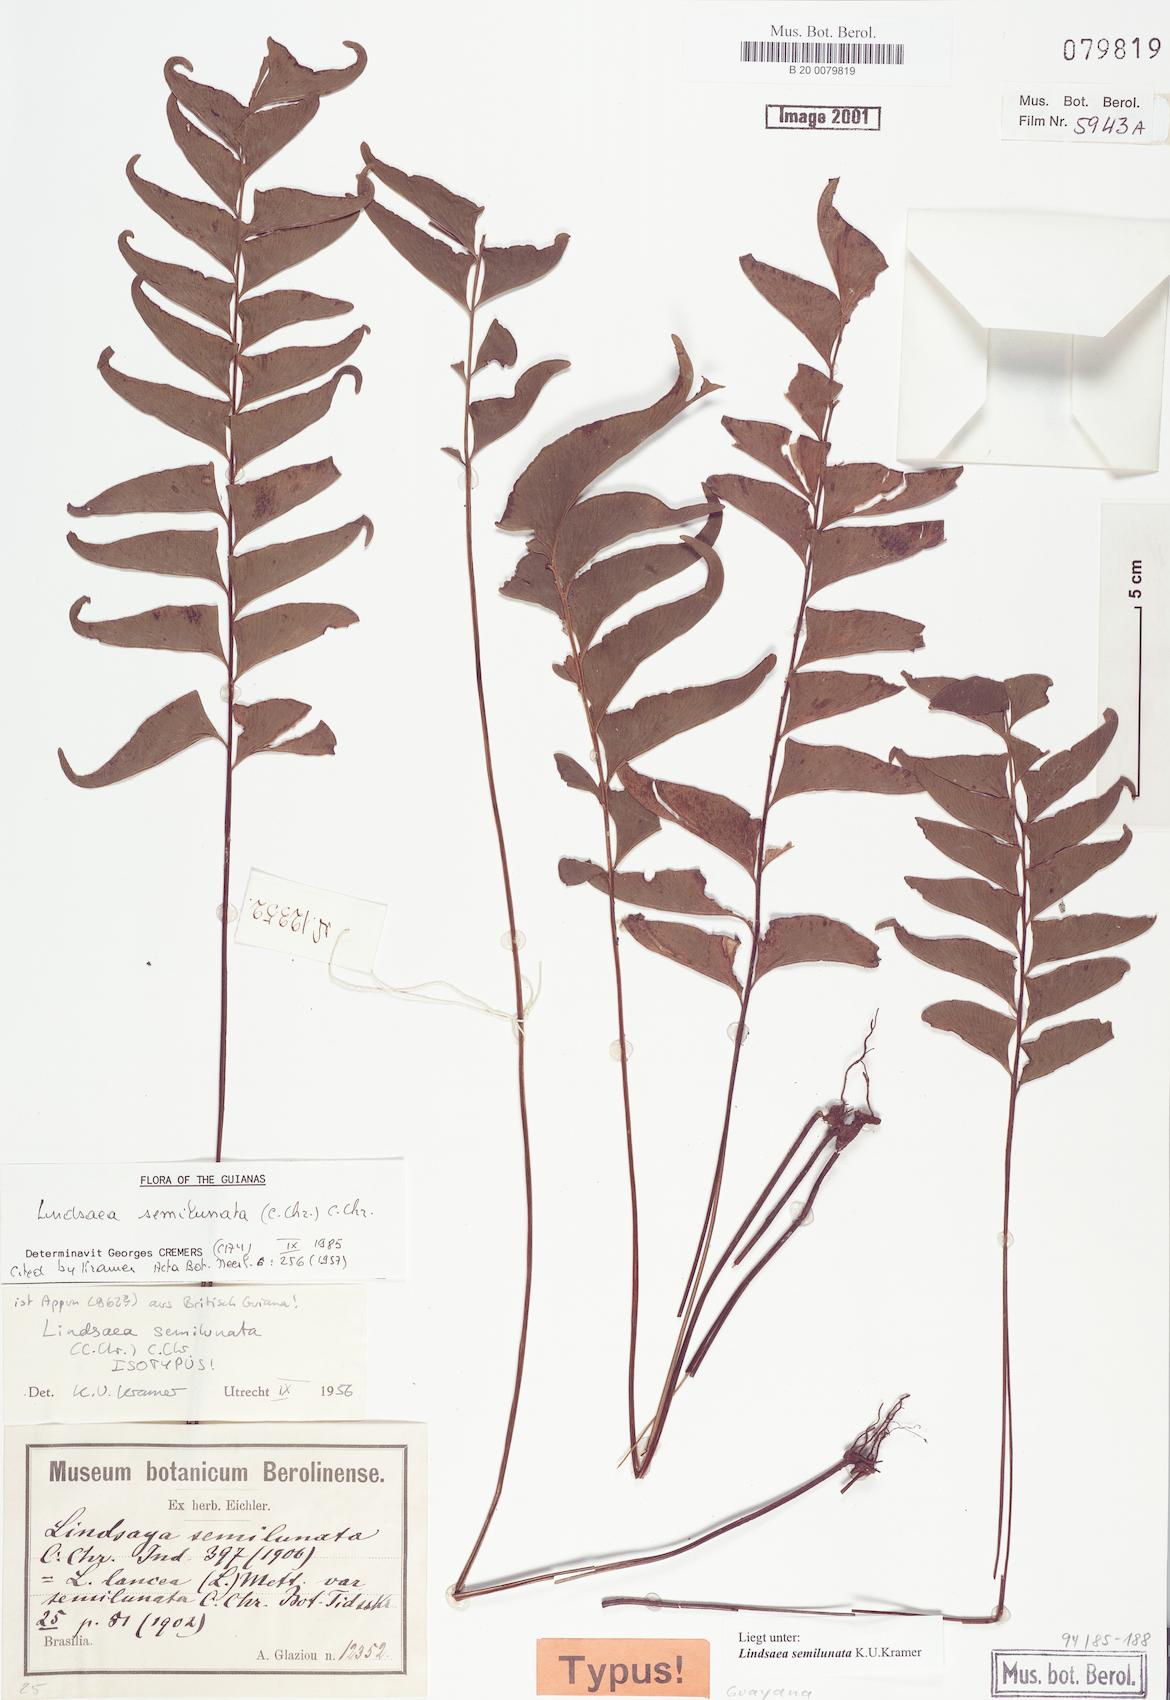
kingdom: Plantae
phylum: Tracheophyta
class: Polypodiopsida
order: Polypodiales
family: Lindsaeaceae
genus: Lindsaea
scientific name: Lindsaea semilunata
